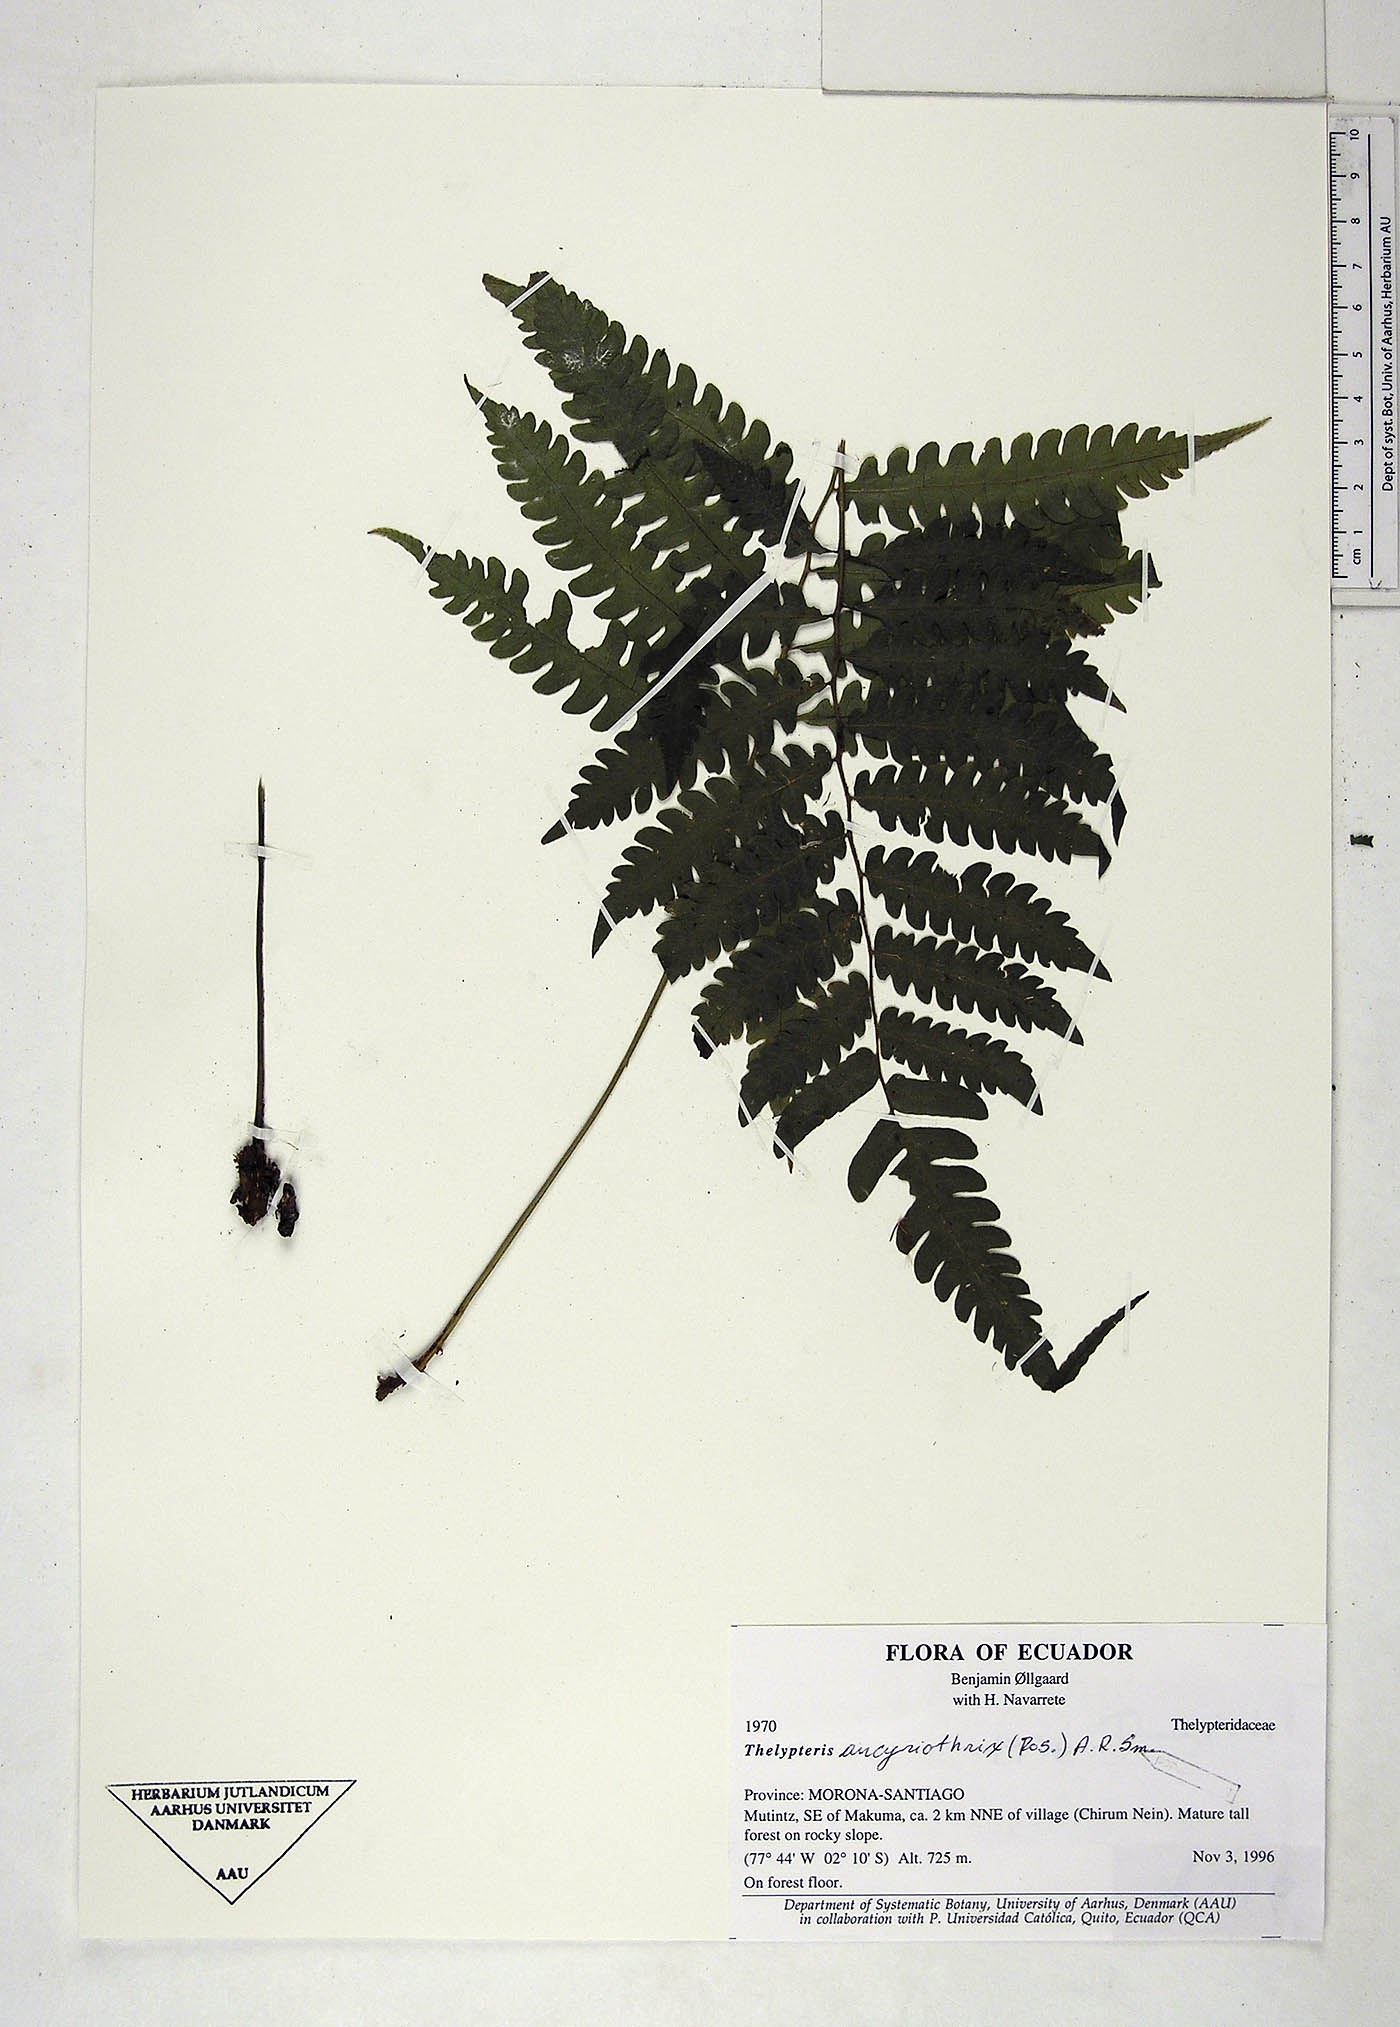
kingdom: Plantae
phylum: Tracheophyta
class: Polypodiopsida
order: Polypodiales
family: Thelypteridaceae
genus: Goniopteris
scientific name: Goniopteris ancyriothrix
